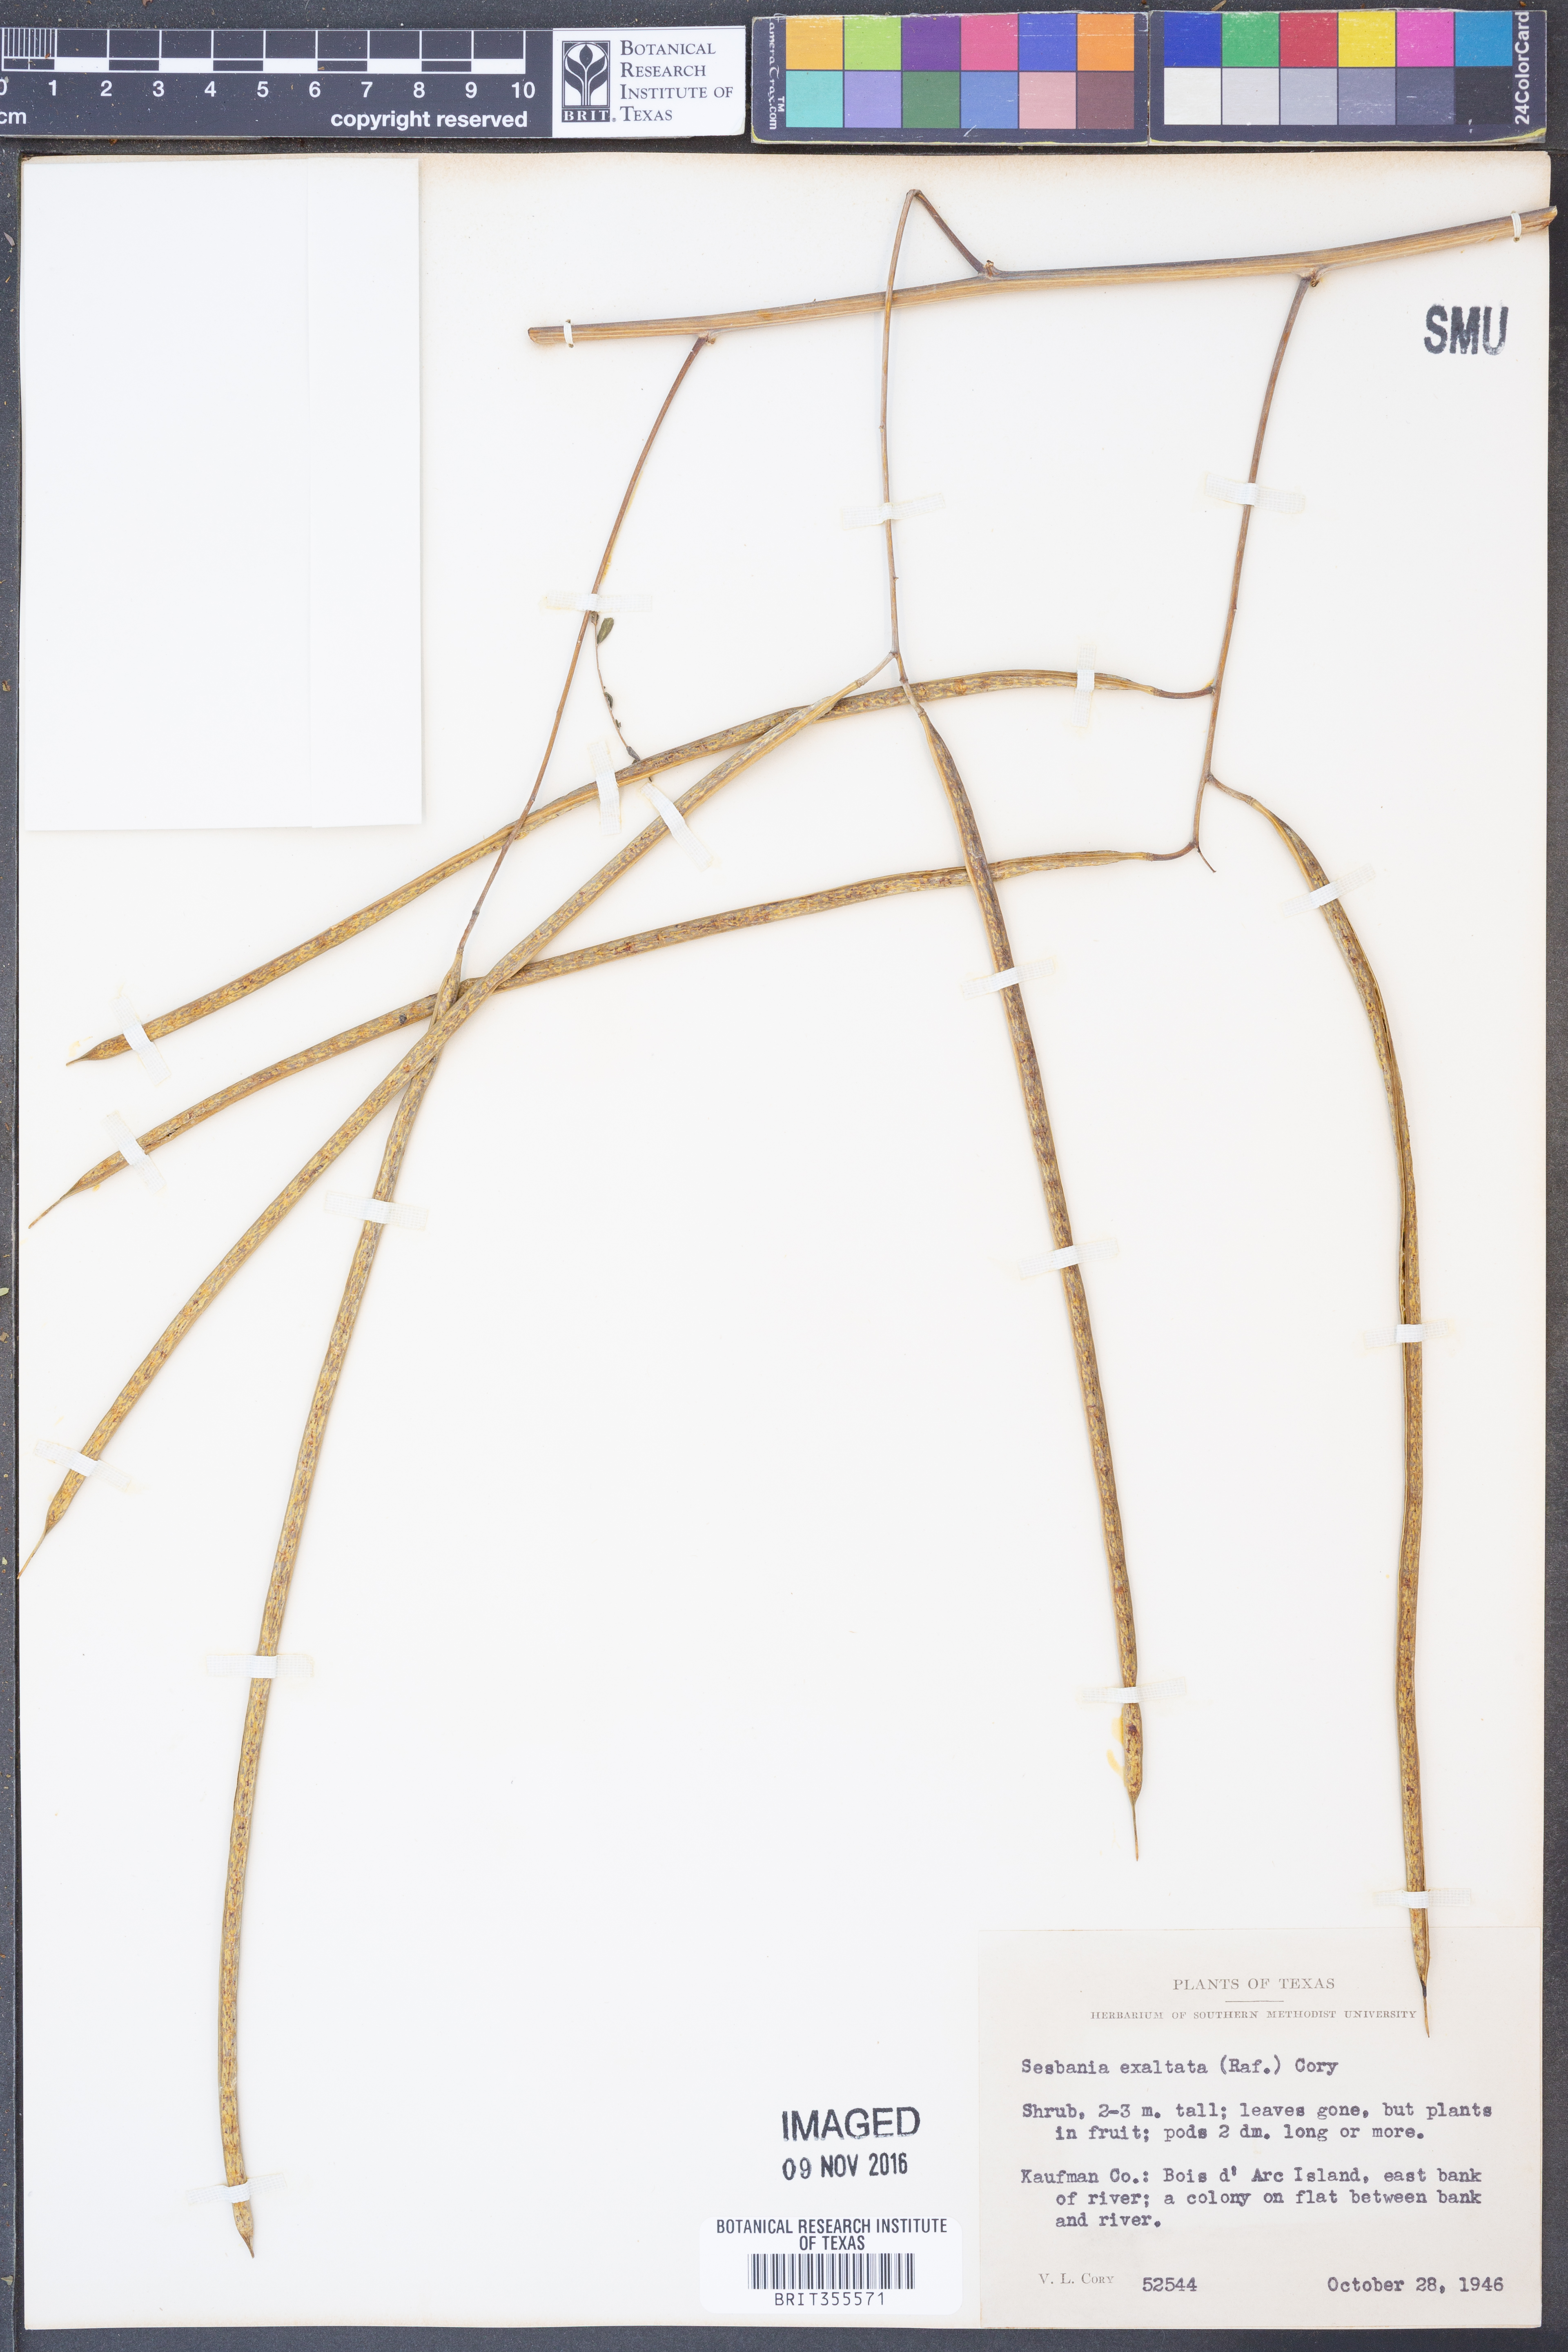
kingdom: Plantae
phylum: Tracheophyta
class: Magnoliopsida
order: Fabales
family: Fabaceae
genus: Sesbania
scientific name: Sesbania herbacea
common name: Bigpod sesbania
